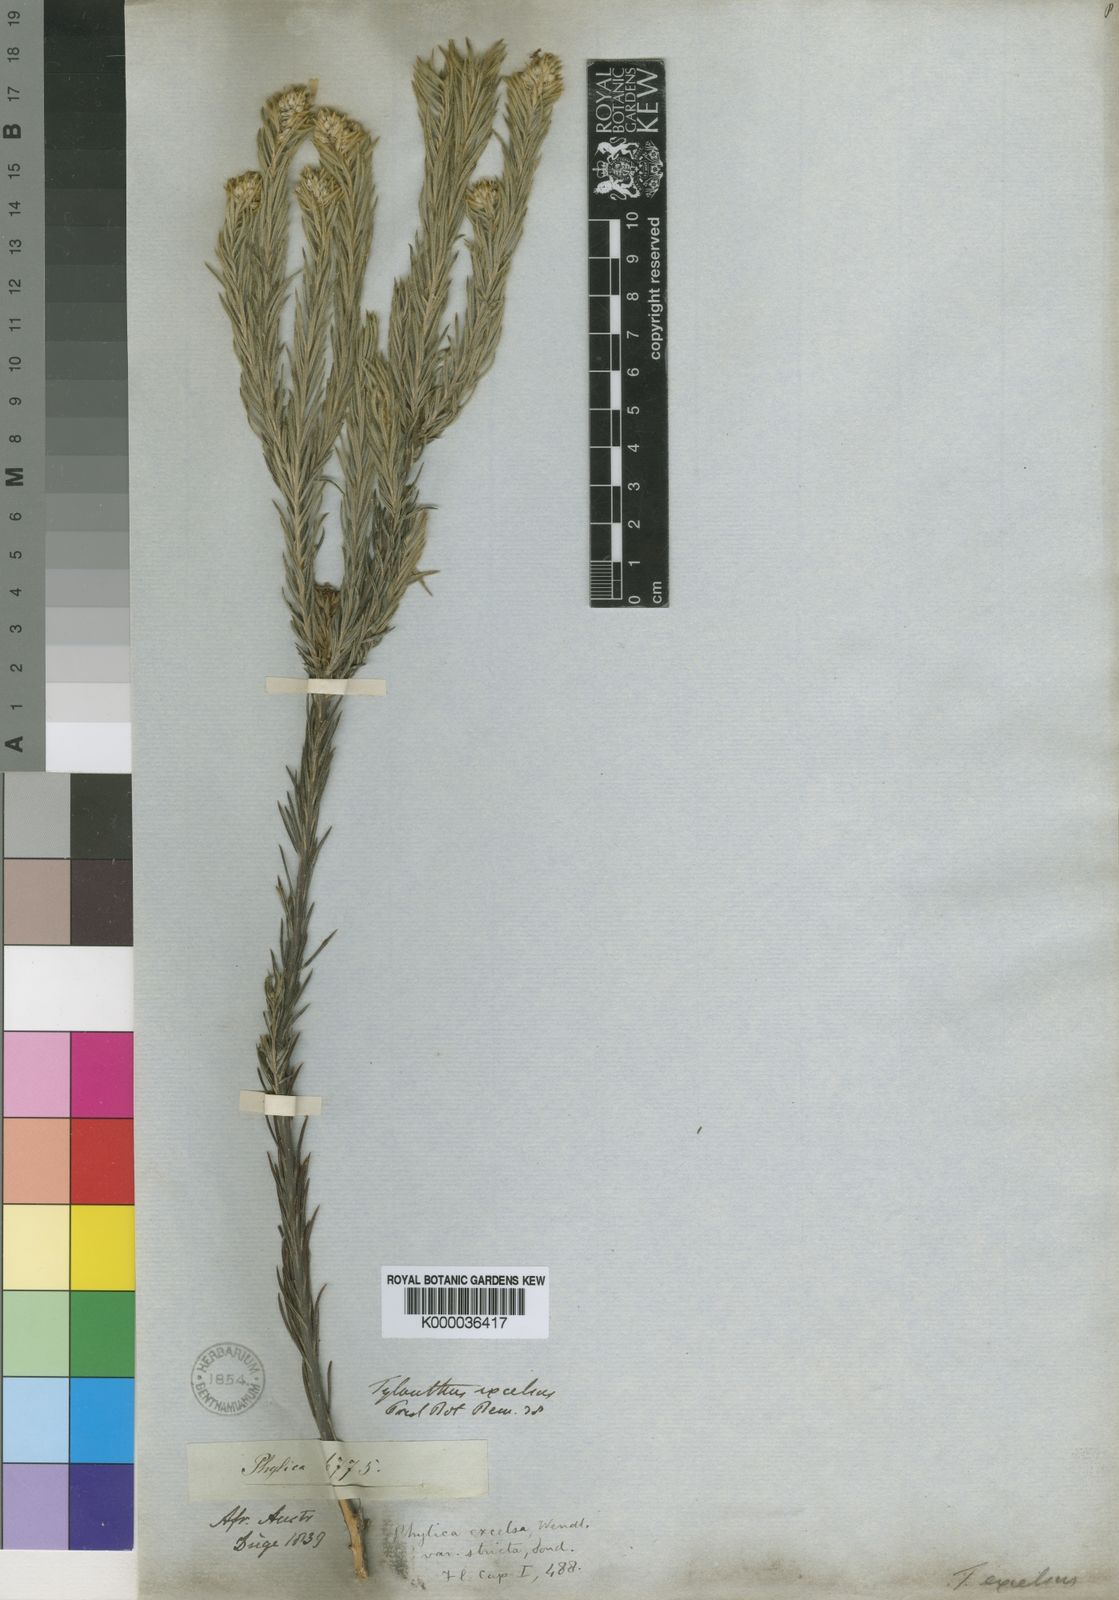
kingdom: Plantae
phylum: Tracheophyta
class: Magnoliopsida
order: Rosales
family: Rhamnaceae
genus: Phylica
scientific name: Phylica excelsa
